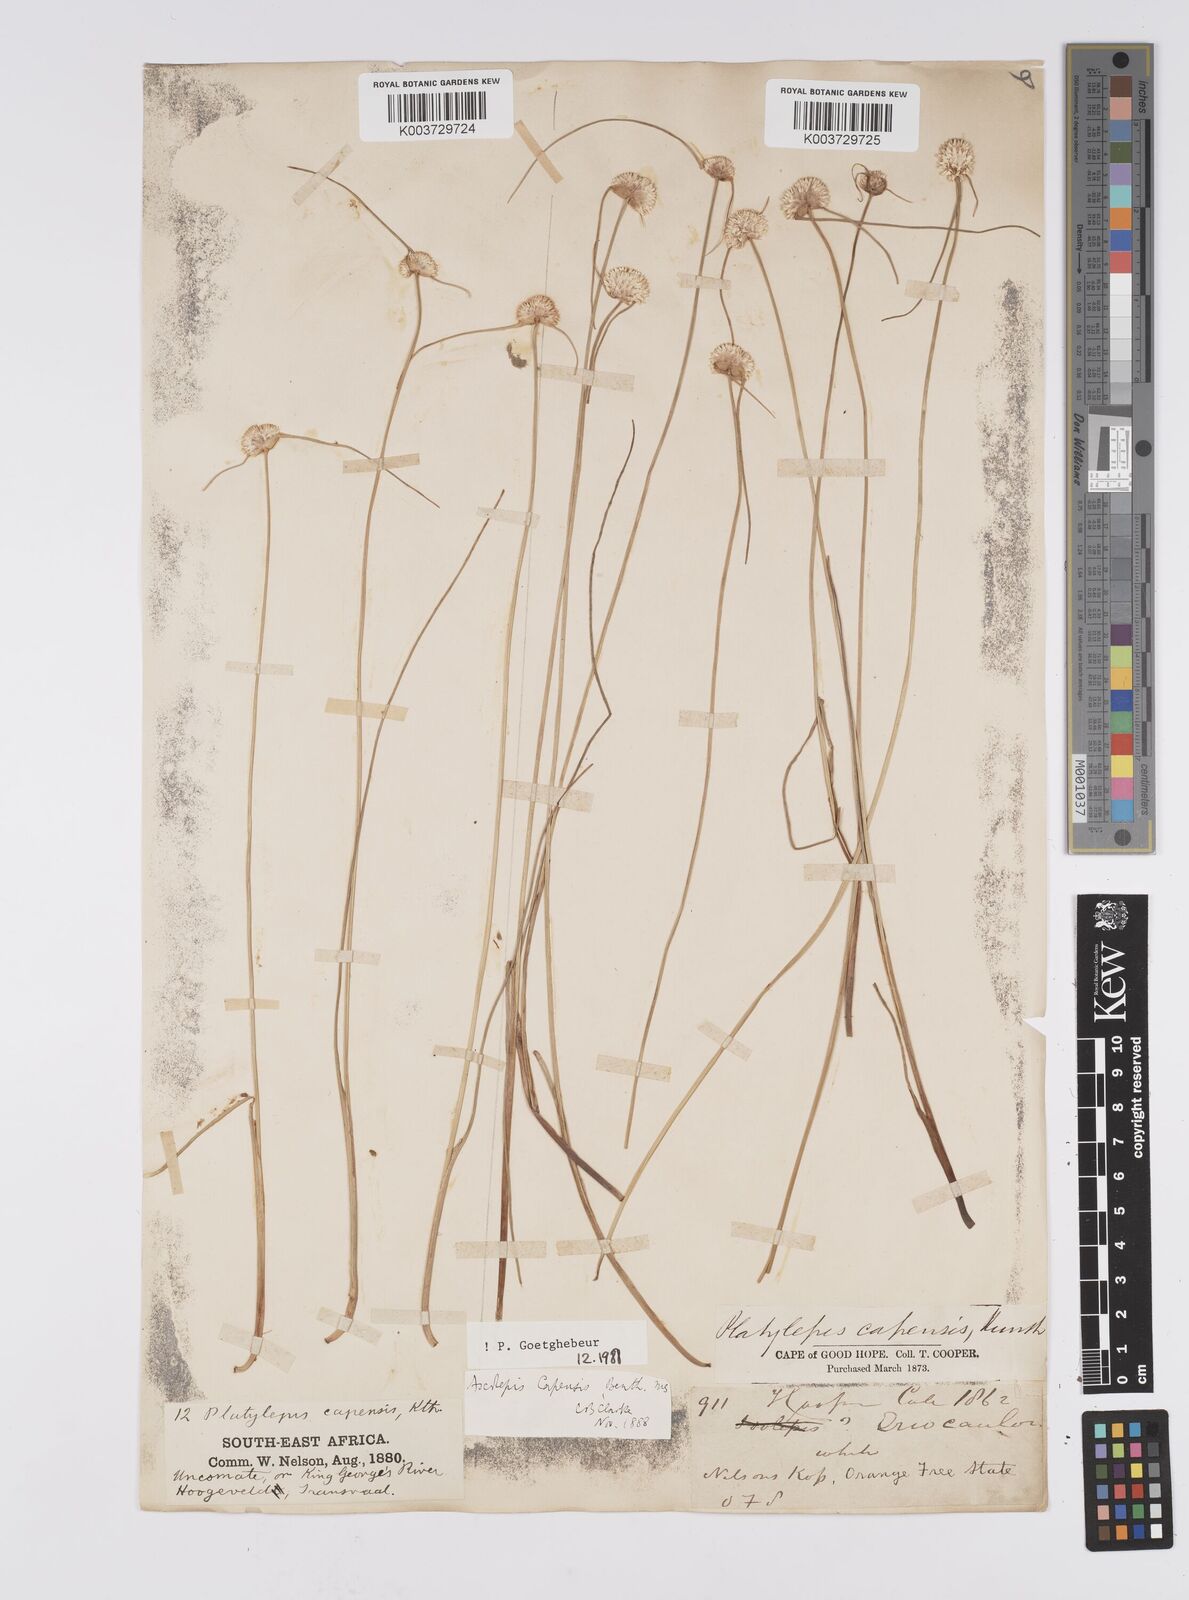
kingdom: Plantae
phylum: Tracheophyta
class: Liliopsida
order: Poales
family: Cyperaceae
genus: Cyperus
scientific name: Cyperus capensis
